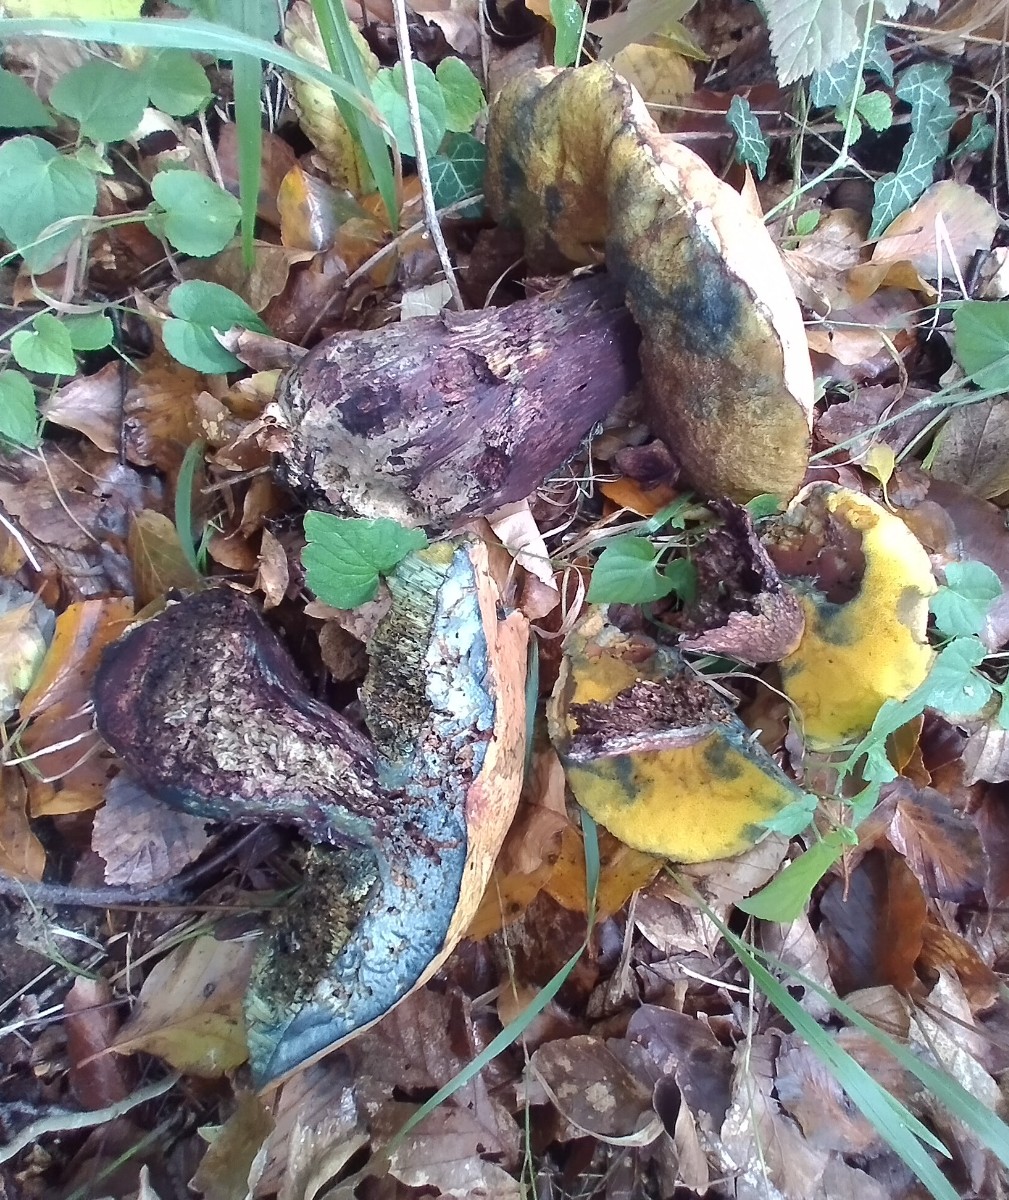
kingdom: Fungi
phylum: Basidiomycota
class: Agaricomycetes
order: Boletales
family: Boletaceae
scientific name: Boletaceae
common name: rørhatfamilien
